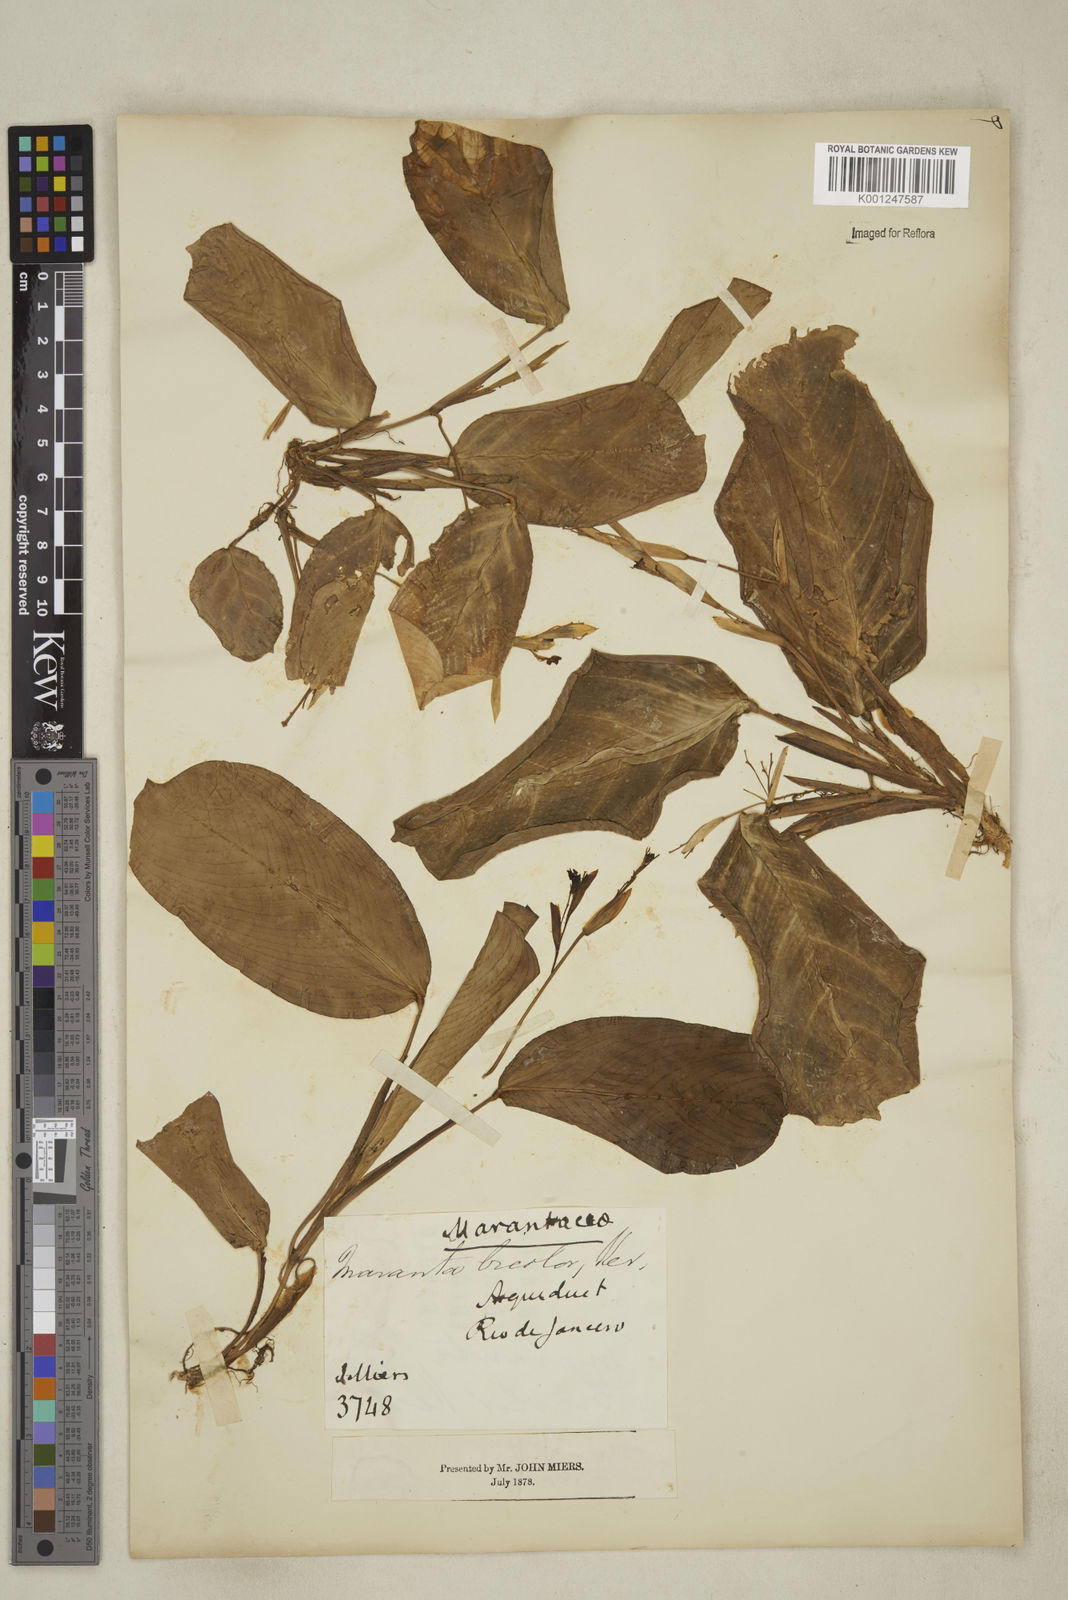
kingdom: Plantae
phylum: Tracheophyta
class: Liliopsida
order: Zingiberales
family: Marantaceae
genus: Maranta
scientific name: Maranta cristata
